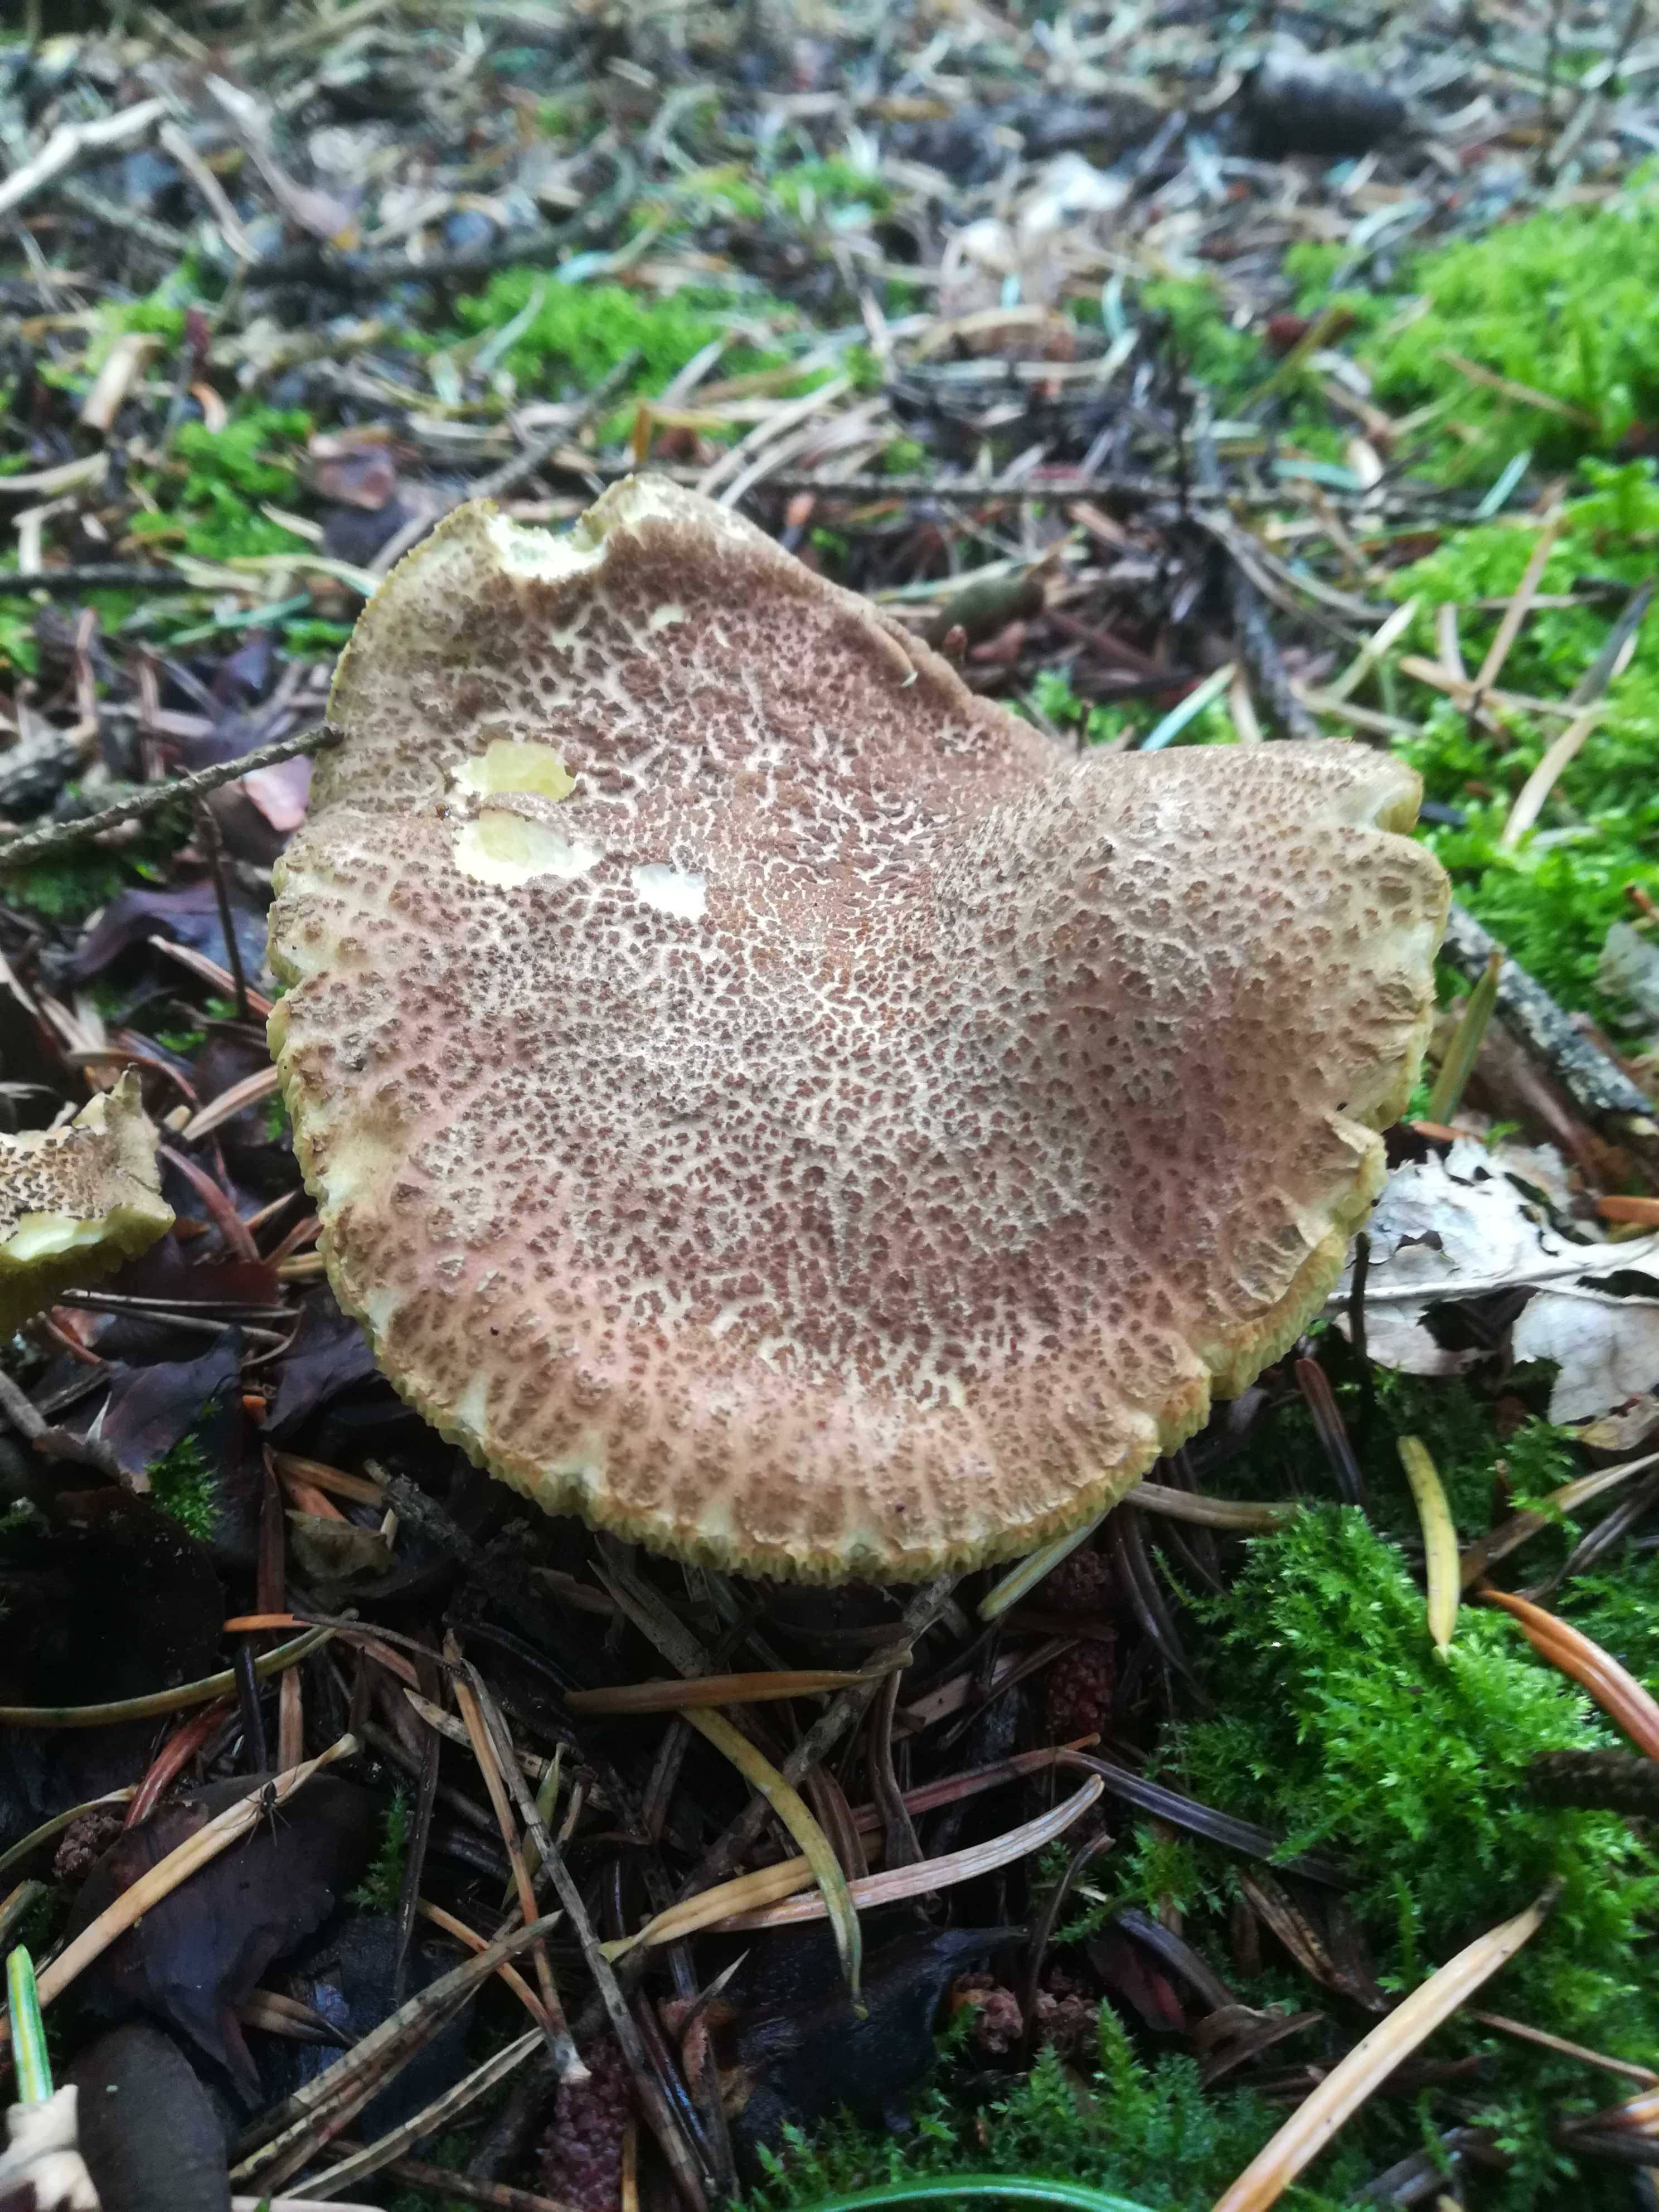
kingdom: Fungi
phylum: Basidiomycota
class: Agaricomycetes
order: Boletales
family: Boletaceae
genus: Xerocomellus
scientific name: Xerocomellus chrysenteron
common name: rødsprukken rørhat
